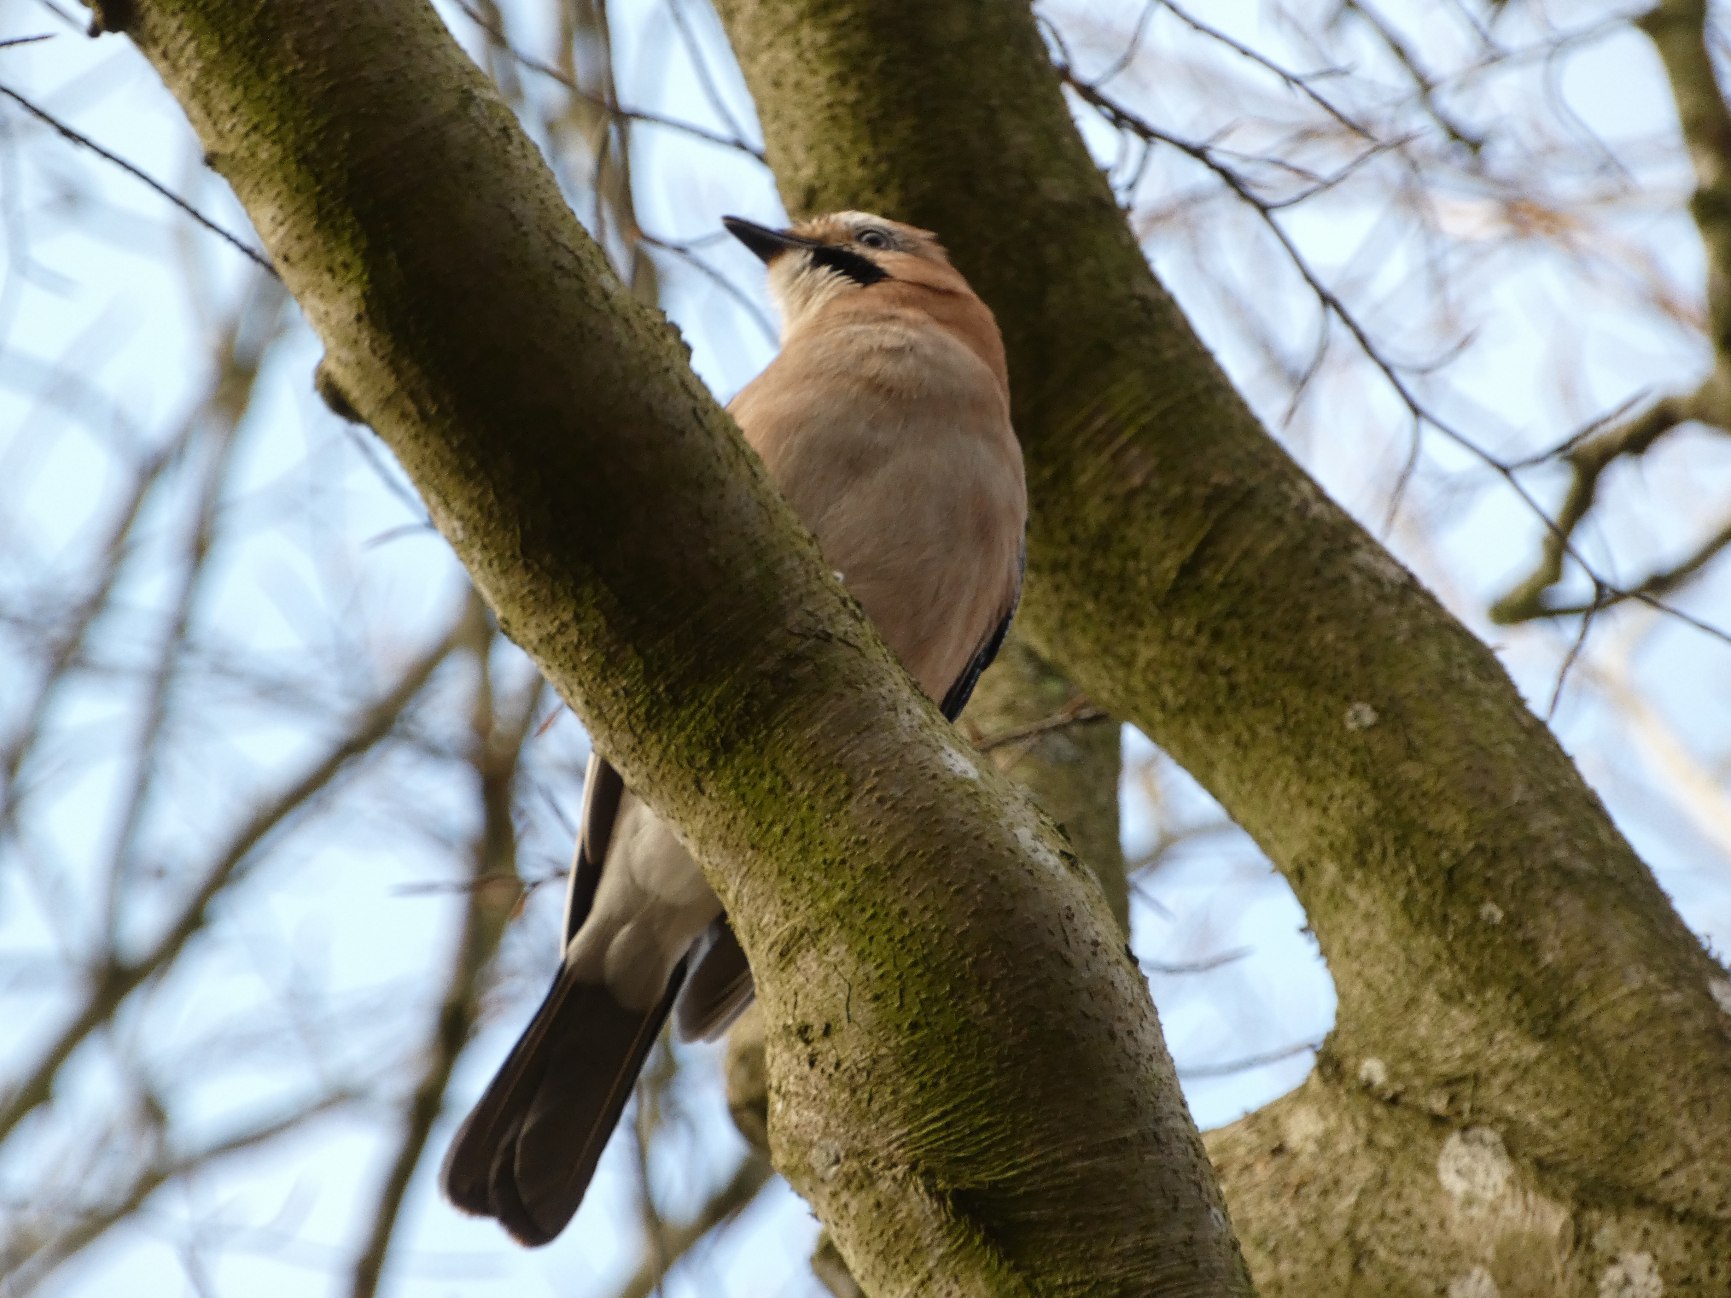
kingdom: Animalia
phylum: Chordata
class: Aves
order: Passeriformes
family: Corvidae
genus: Garrulus
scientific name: Garrulus glandarius
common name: Skovskade
